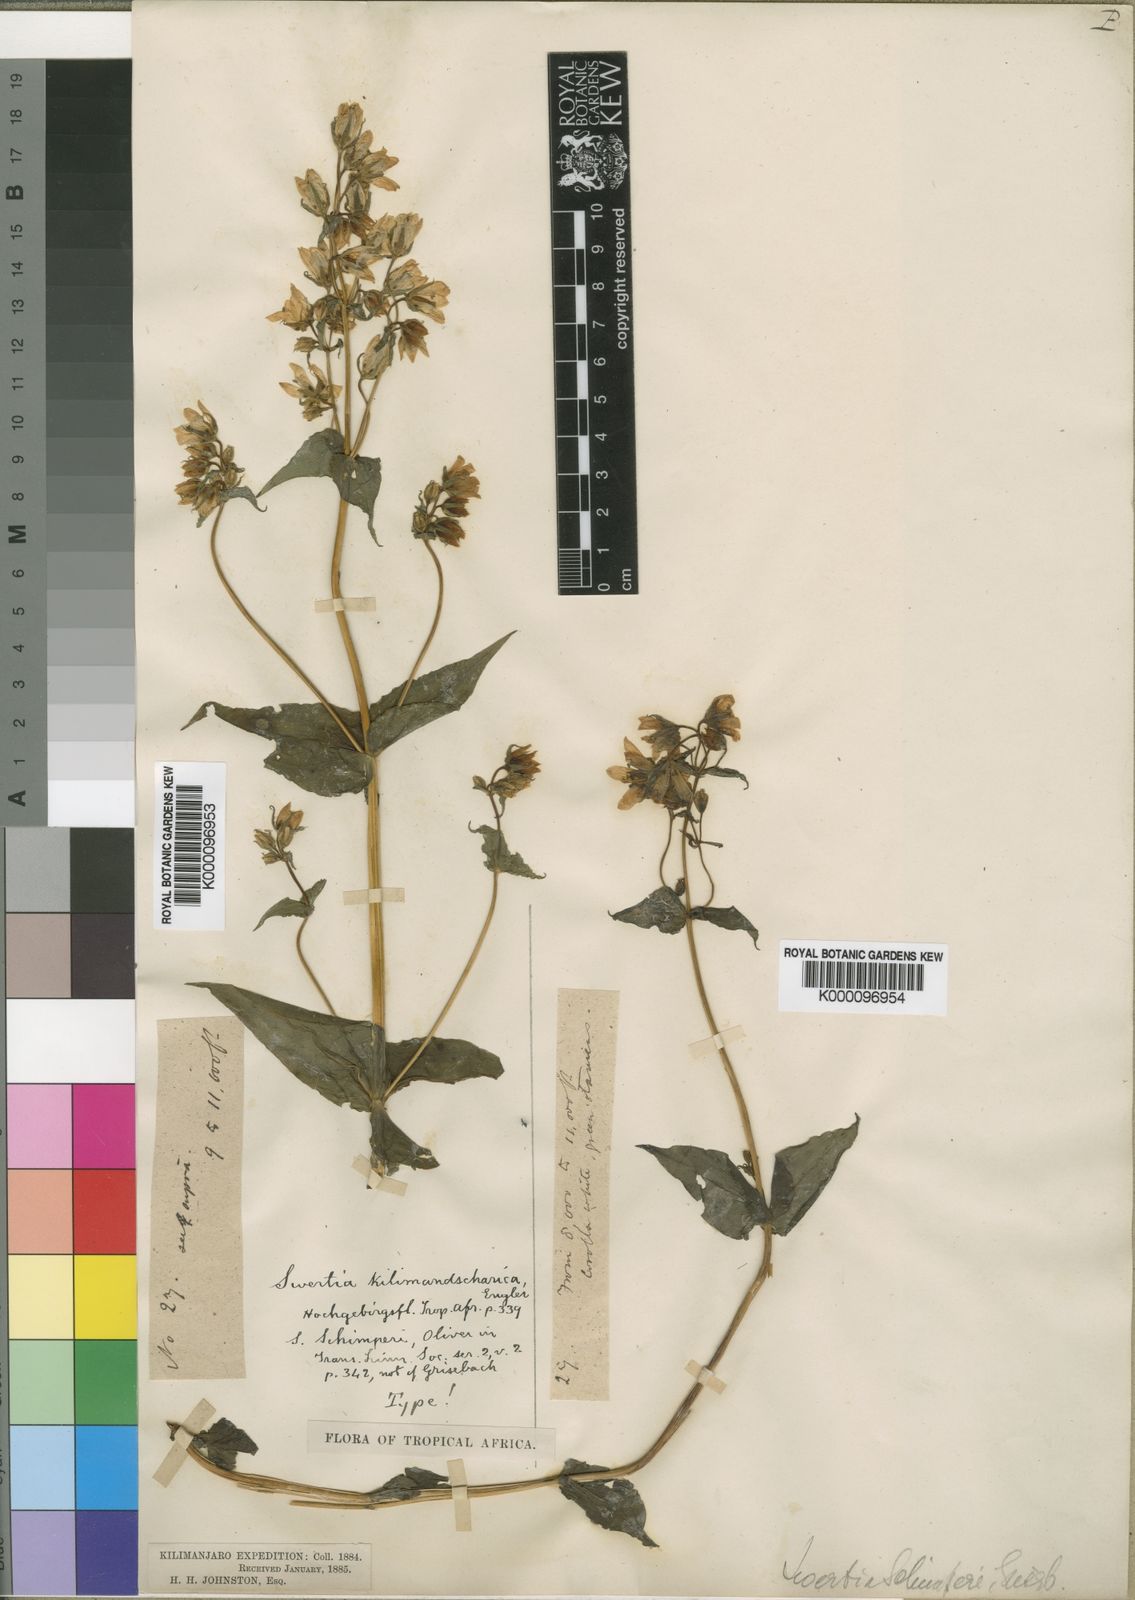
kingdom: Plantae
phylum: Tracheophyta
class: Magnoliopsida
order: Gentianales
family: Gentianaceae
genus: Swertia
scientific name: Swertia kilimandscharica
